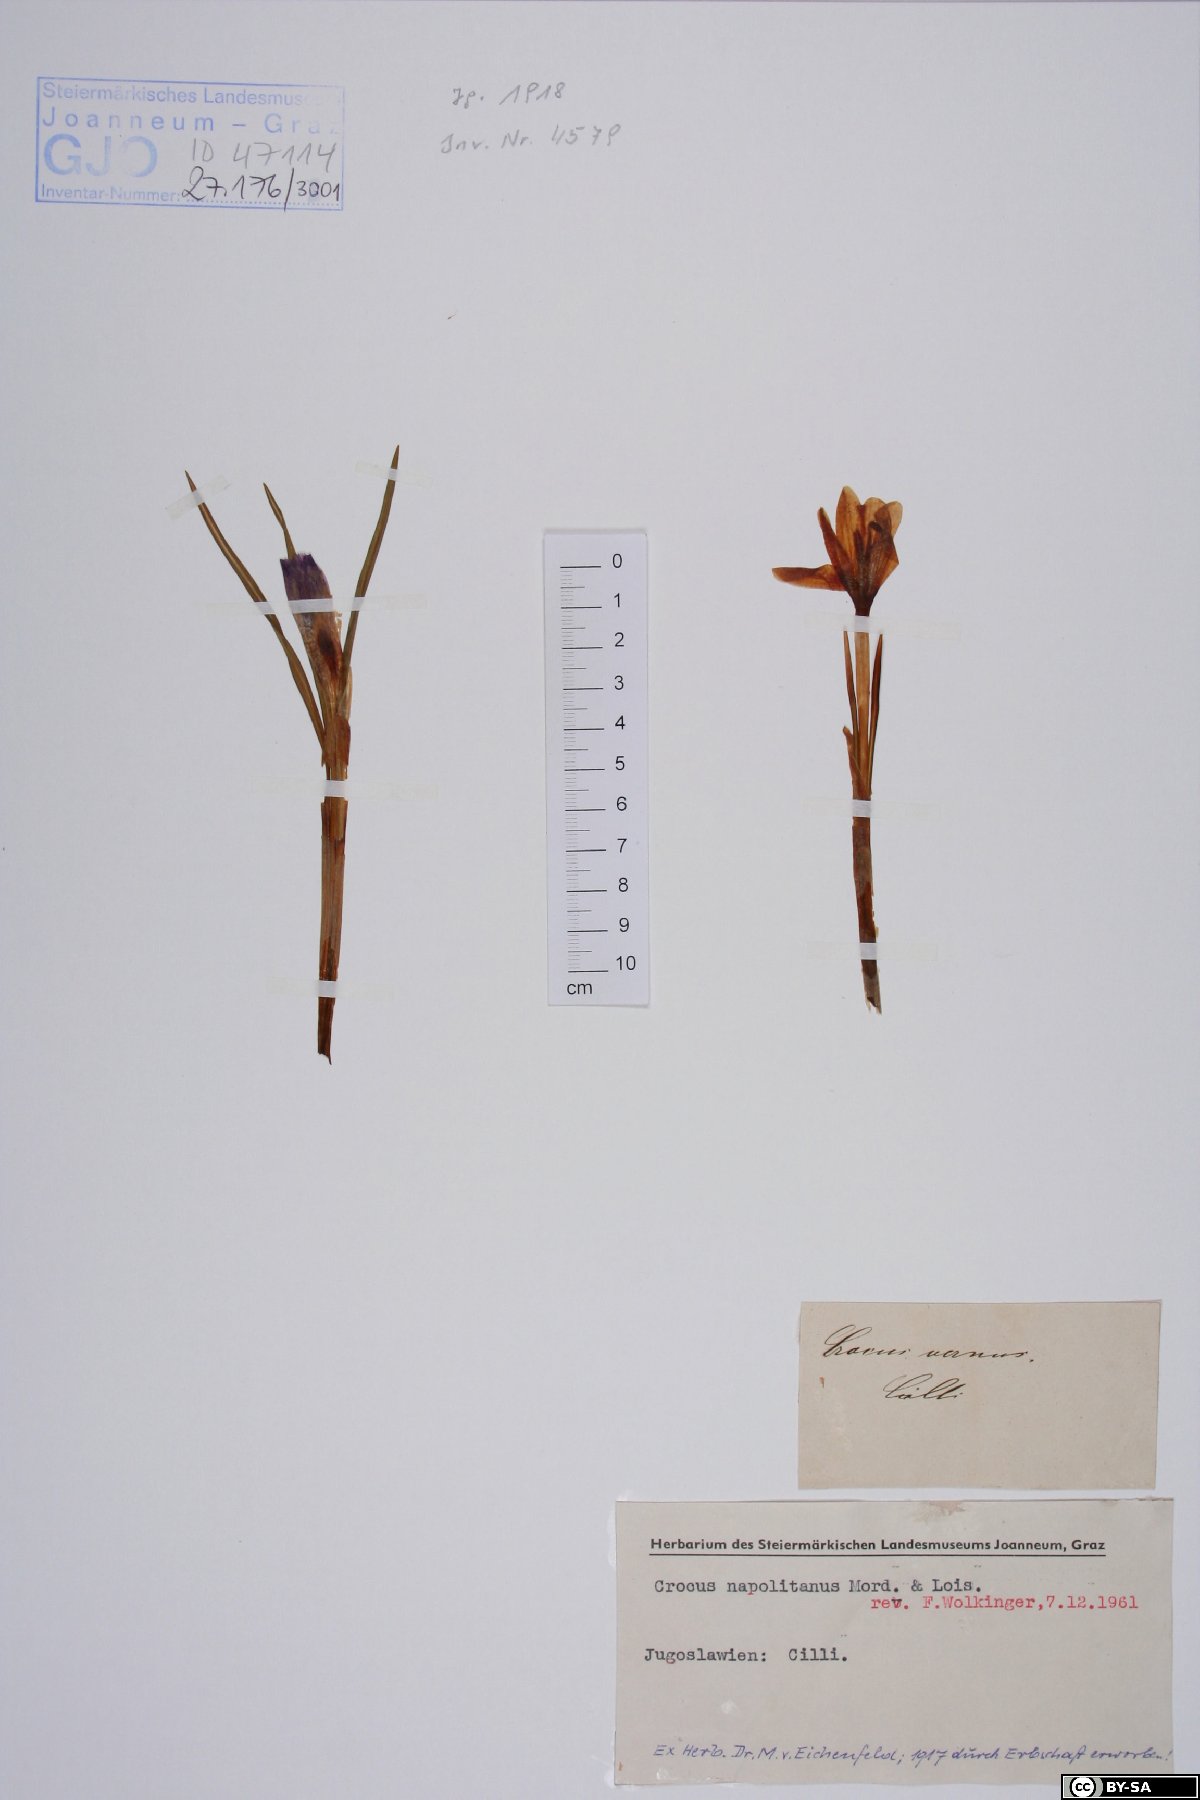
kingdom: Plantae
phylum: Tracheophyta
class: Liliopsida
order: Asparagales
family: Iridaceae
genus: Crocus
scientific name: Crocus vernus
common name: Spring crocus
